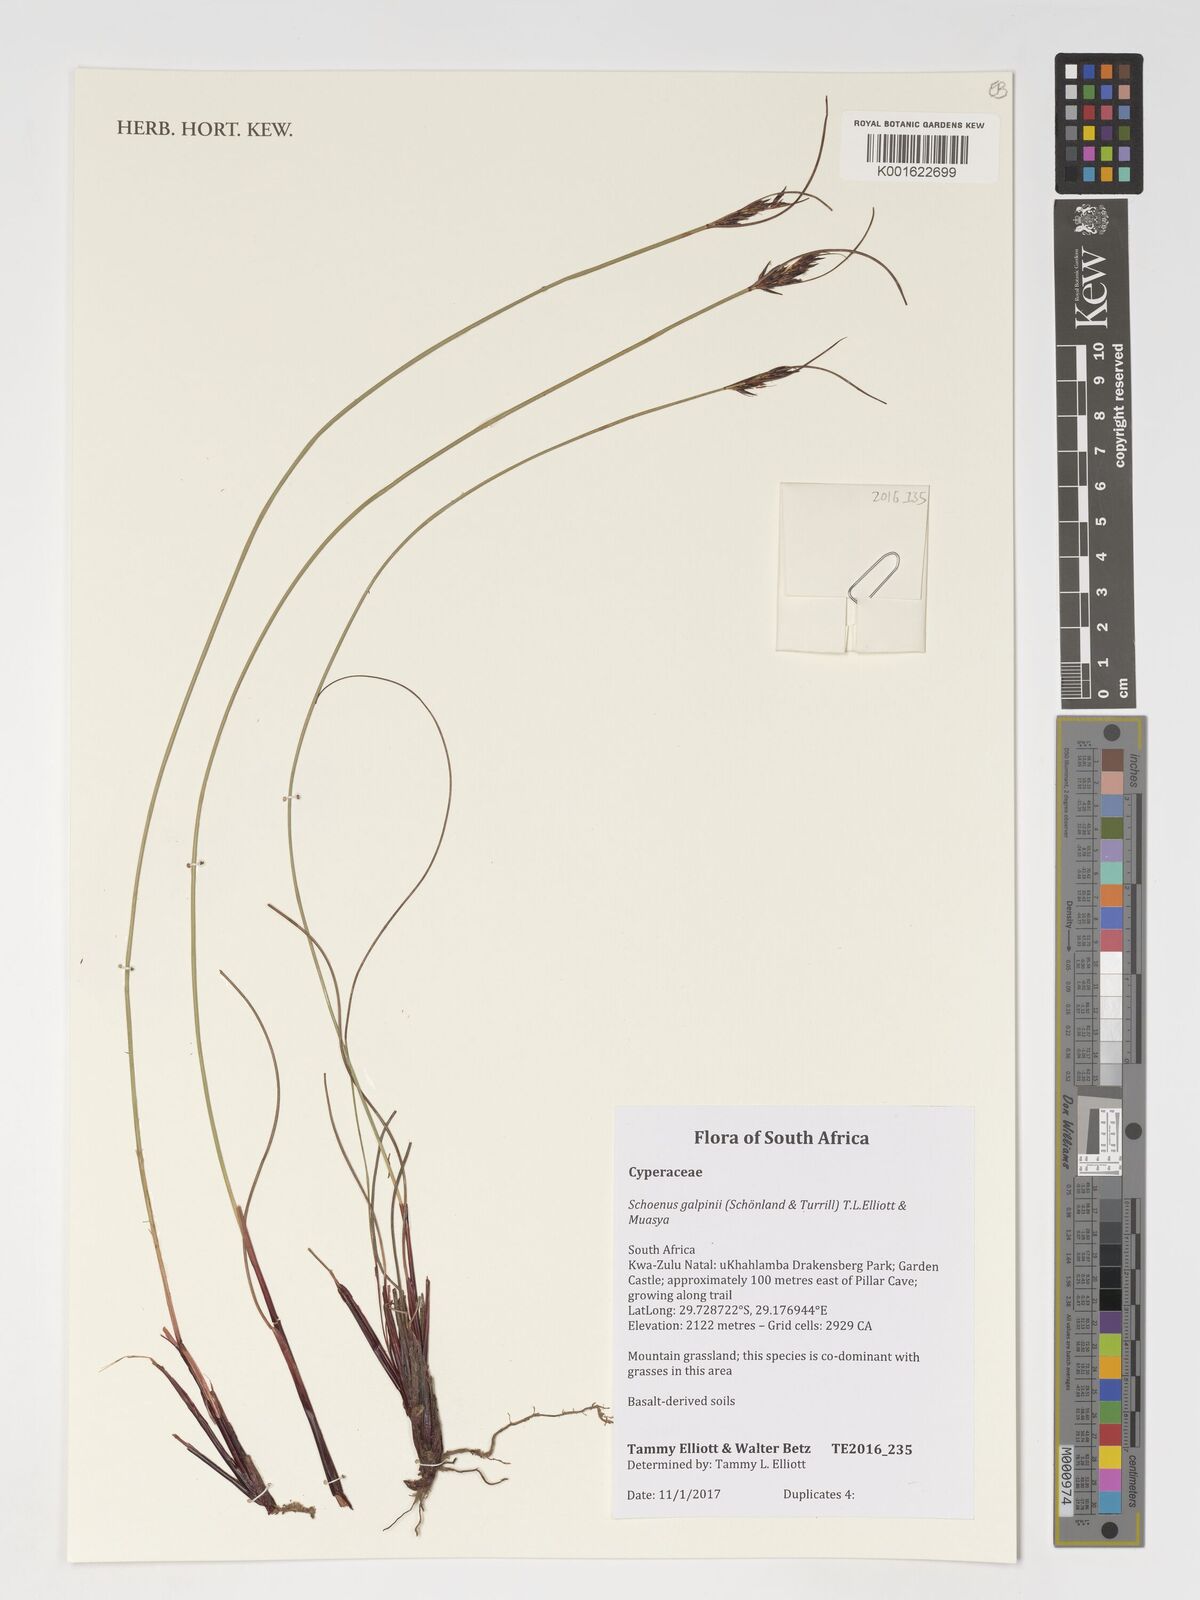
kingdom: Plantae
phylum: Tracheophyta
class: Liliopsida
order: Poales
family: Cyperaceae
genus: Schoenus
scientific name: Schoenus galpinii
